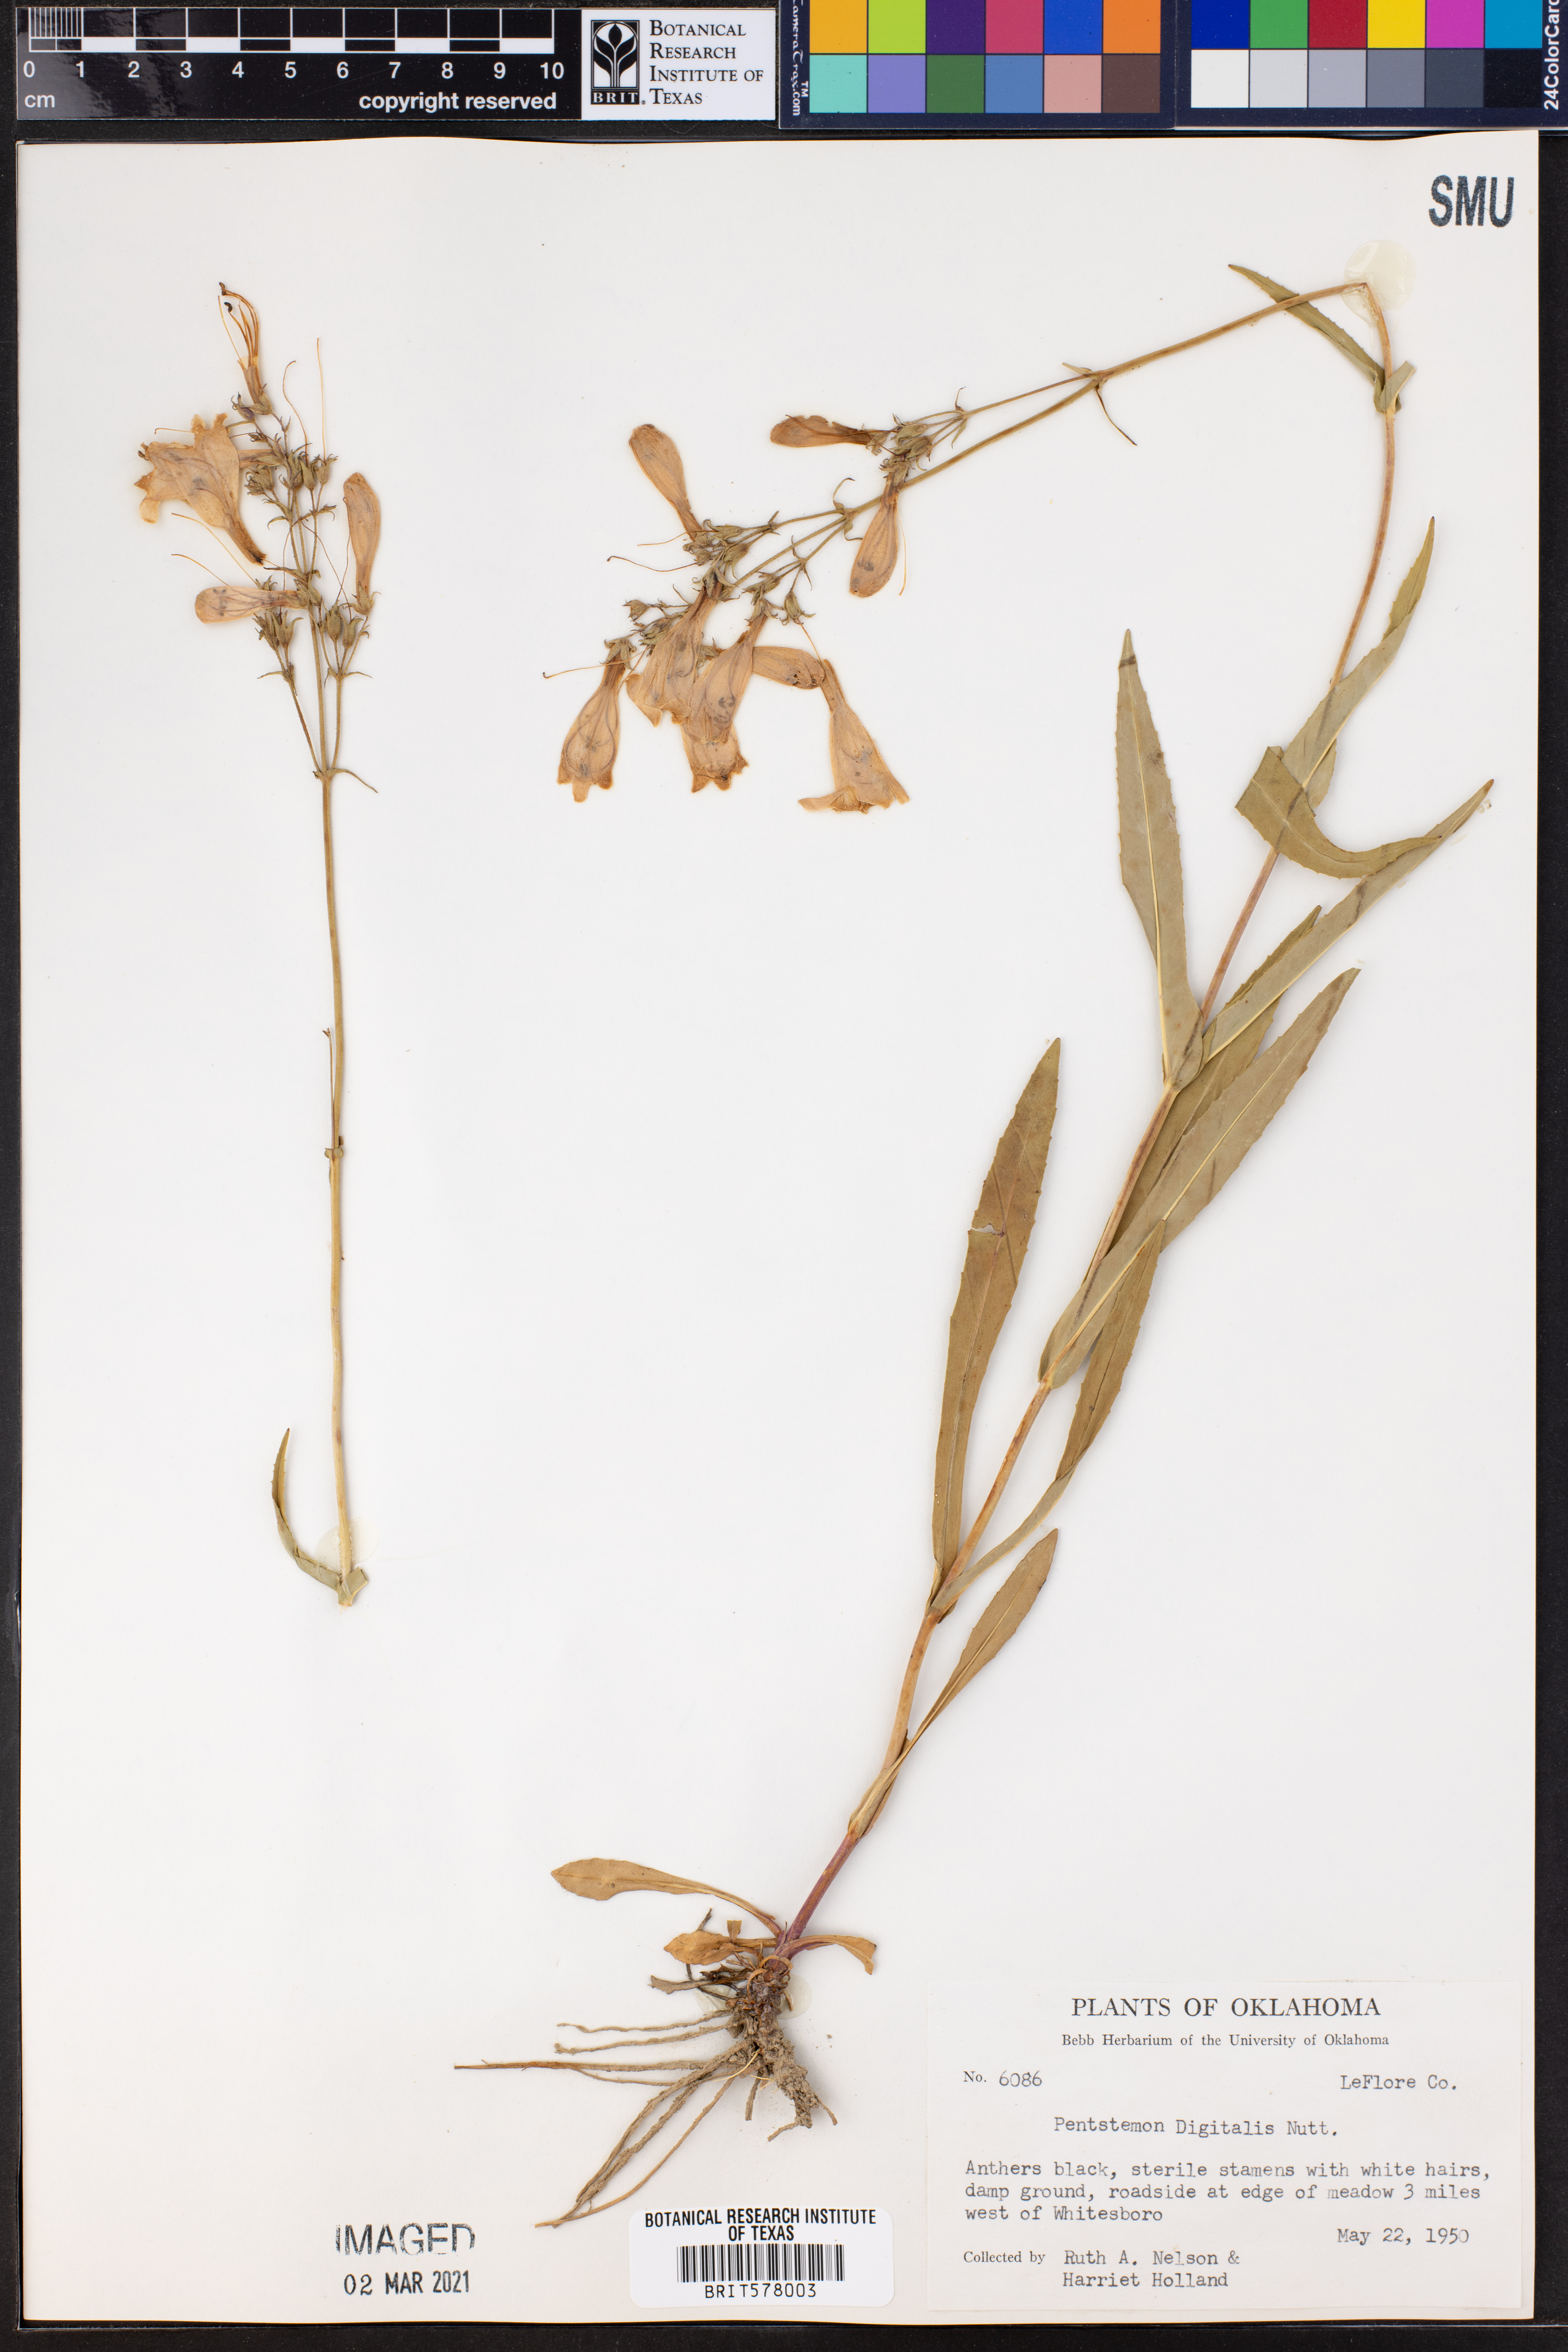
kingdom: Plantae
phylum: Tracheophyta
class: Magnoliopsida
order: Lamiales
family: Plantaginaceae
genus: Penstemon
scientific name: Penstemon digitalis
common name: Foxglove beardtongue
